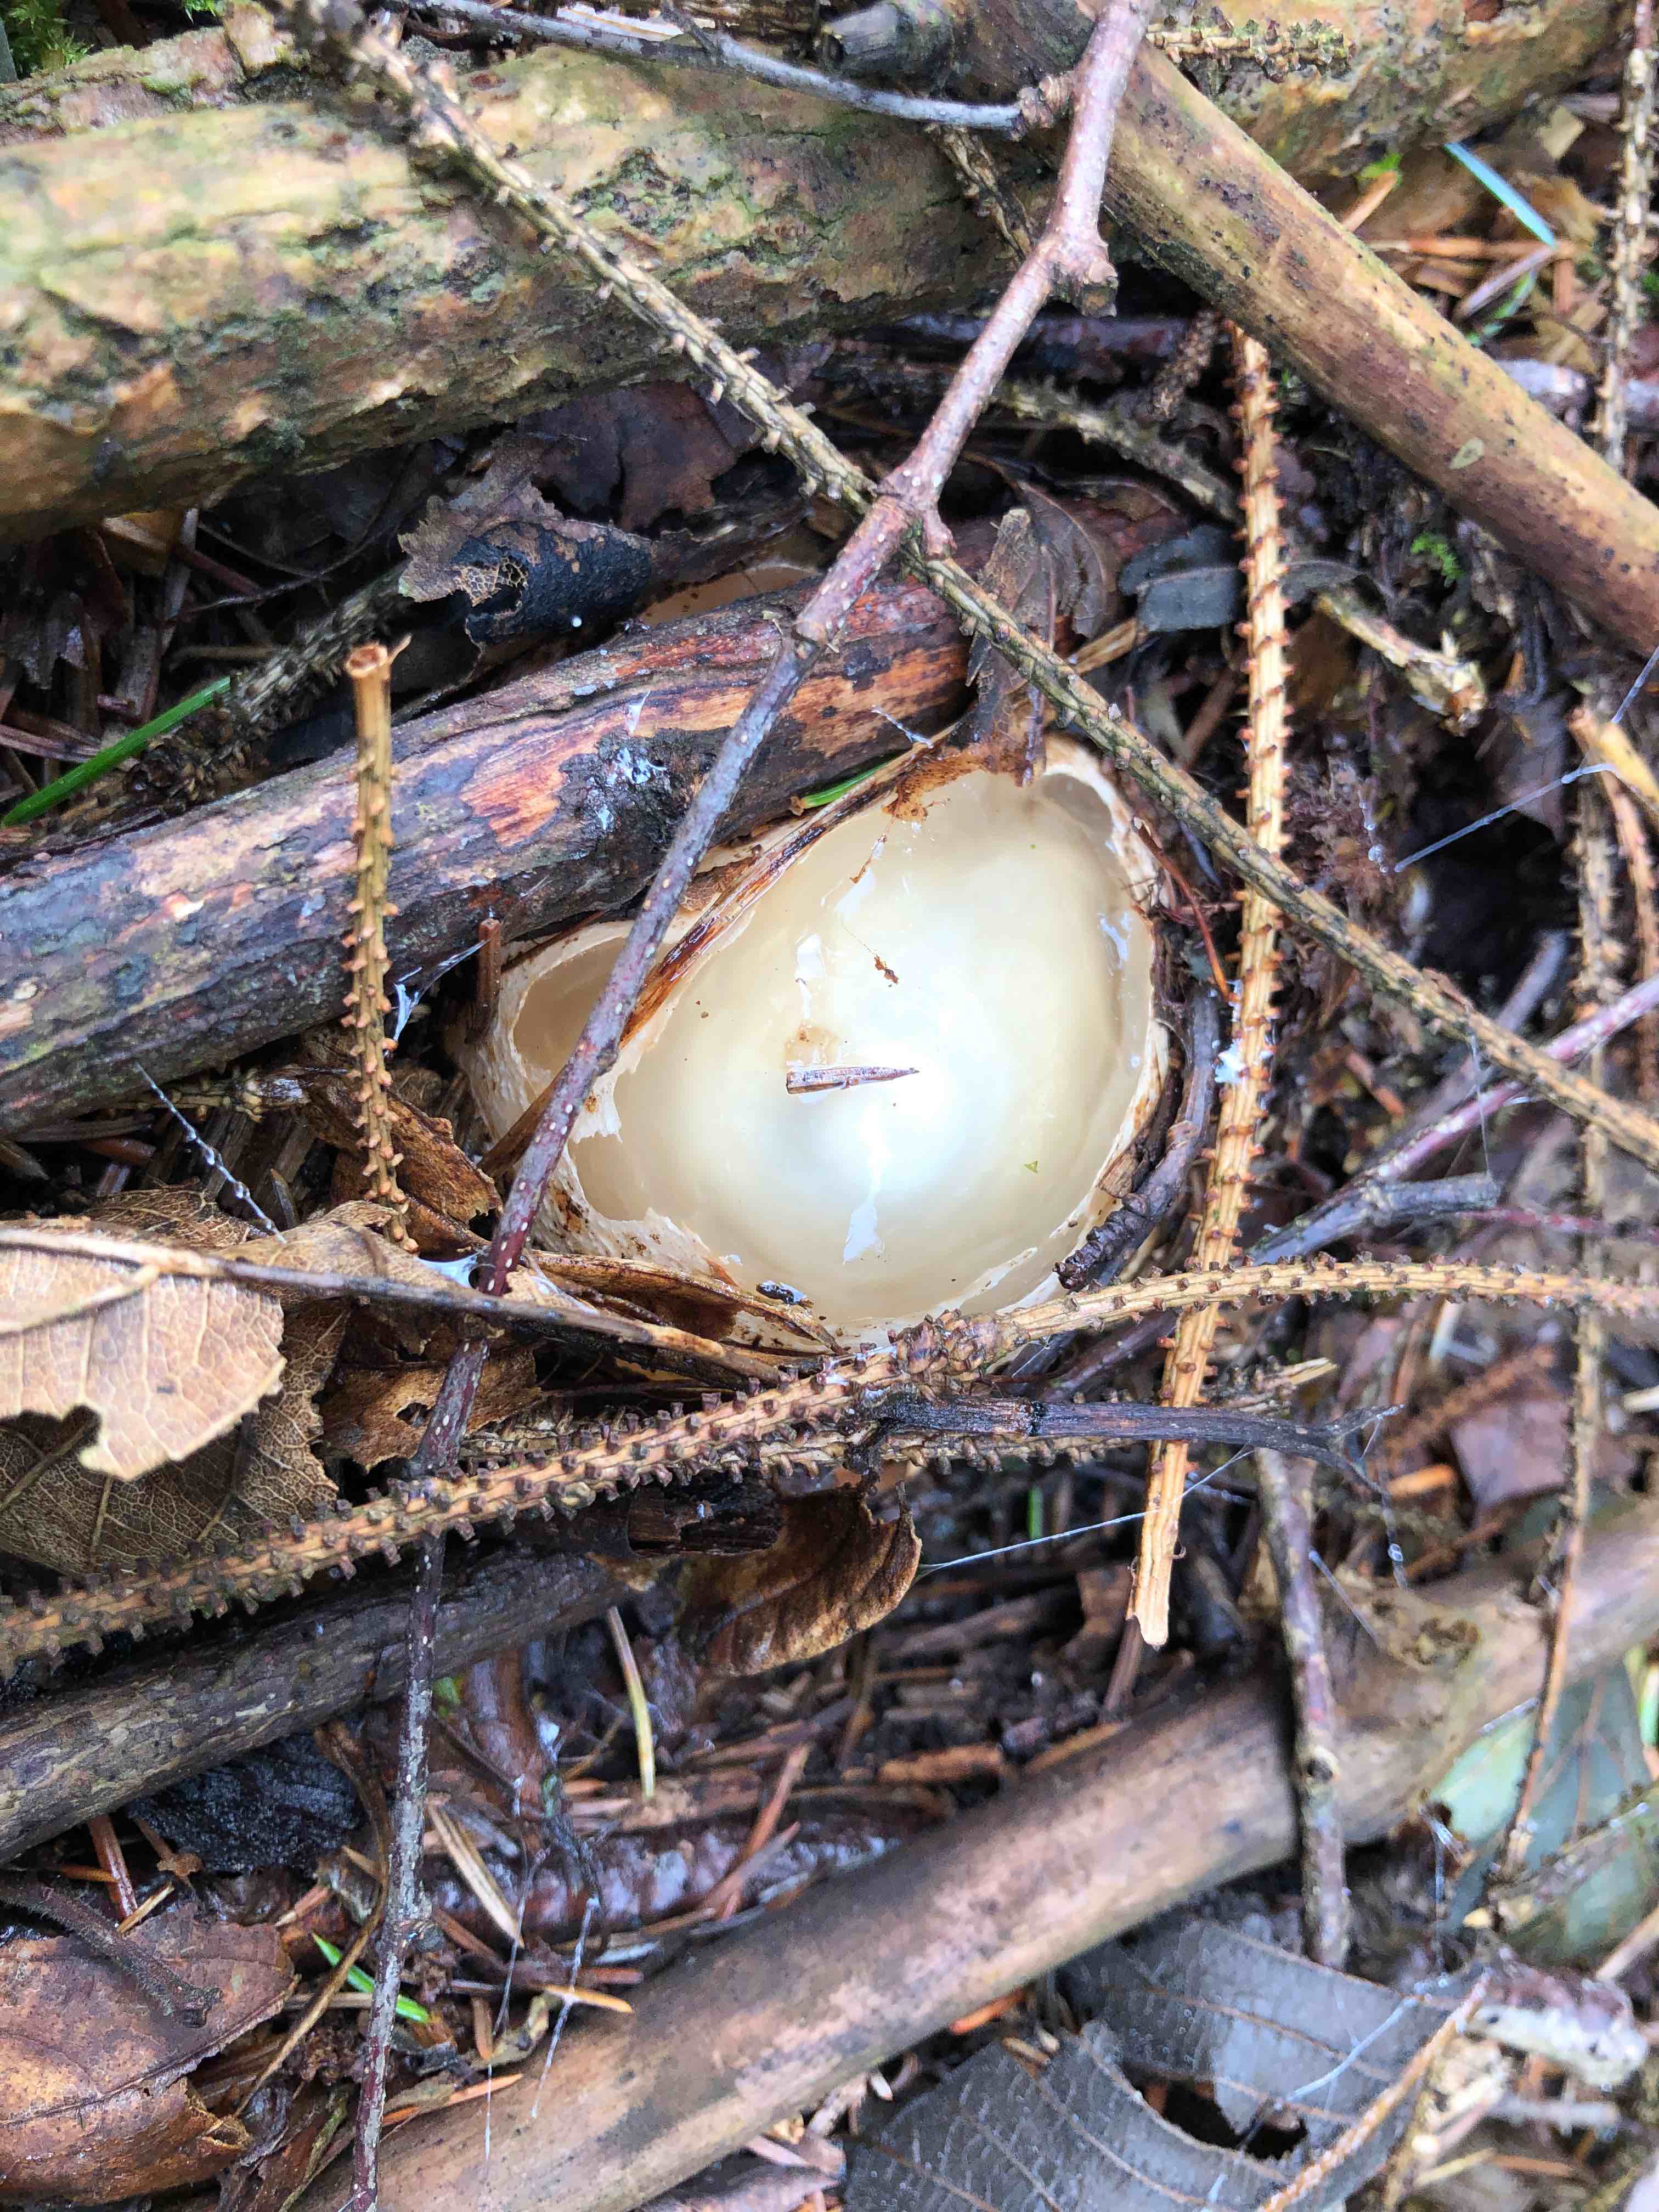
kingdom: Fungi
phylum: Basidiomycota
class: Agaricomycetes
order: Phallales
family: Phallaceae
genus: Phallus
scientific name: Phallus impudicus
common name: almindelig stinksvamp
